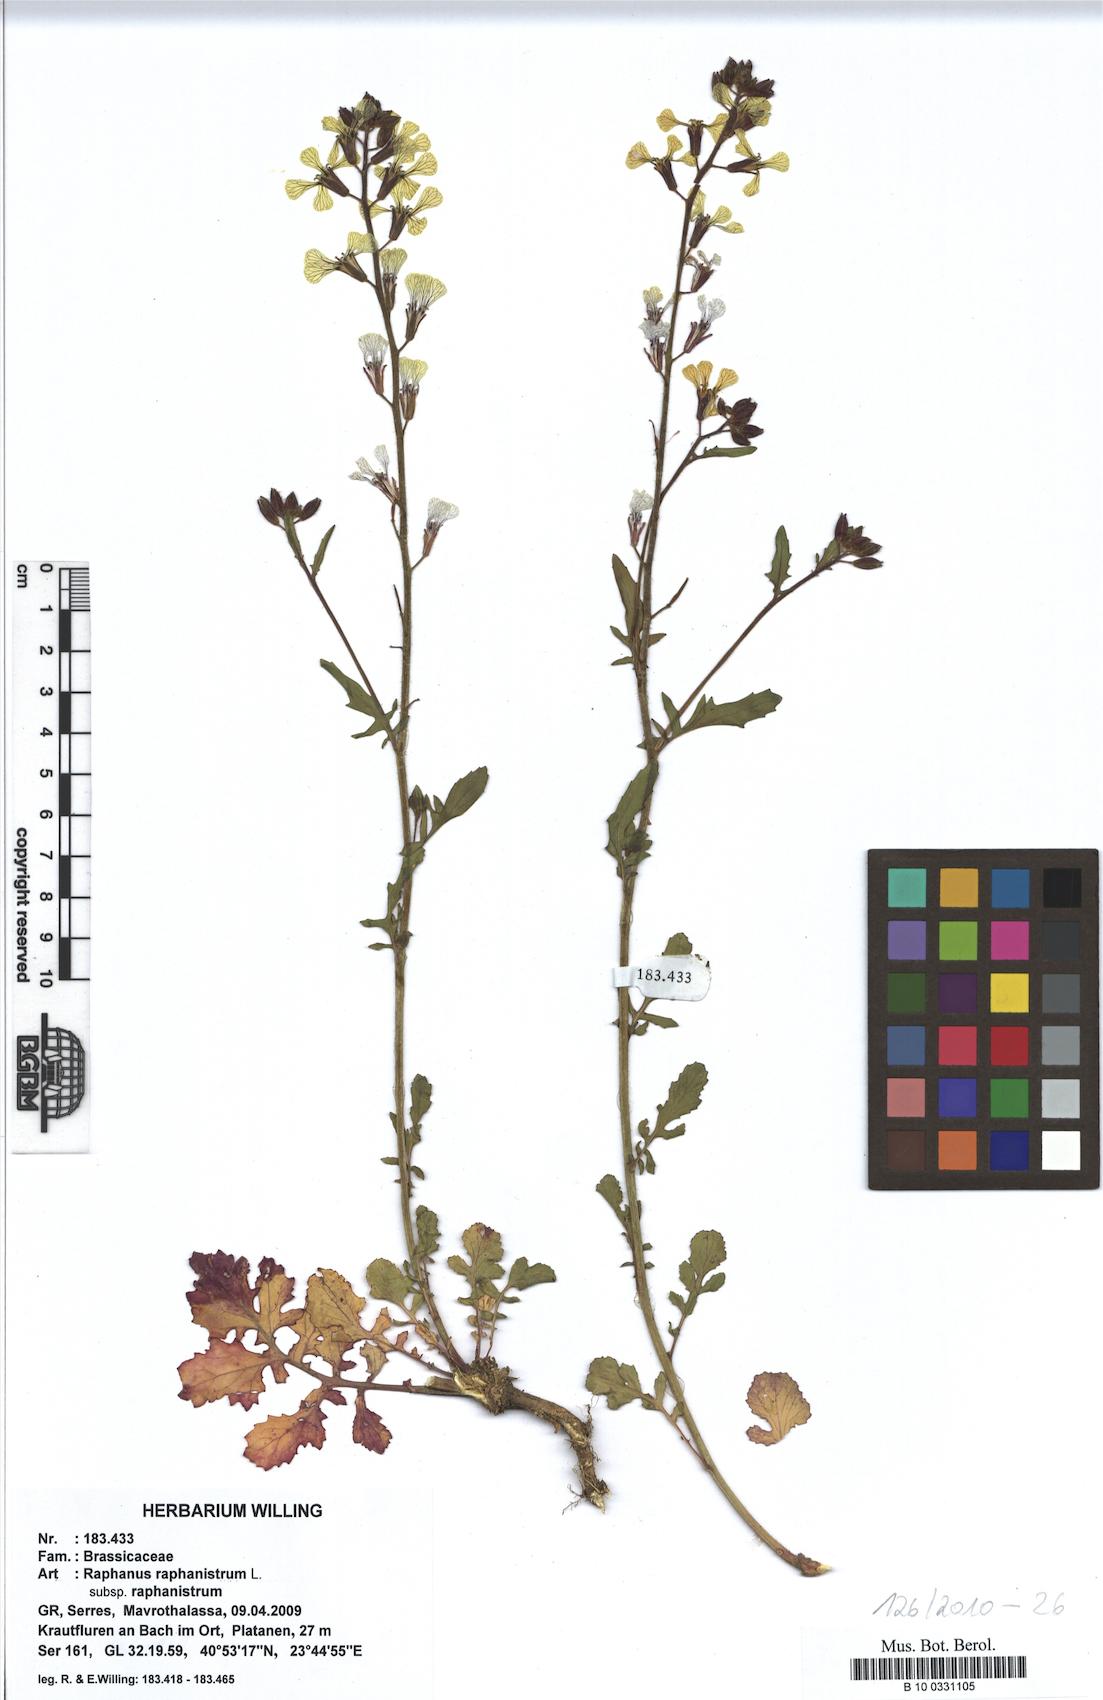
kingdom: Plantae
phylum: Tracheophyta
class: Magnoliopsida
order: Brassicales
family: Brassicaceae
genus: Raphanus
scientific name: Raphanus raphanistrum
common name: Wild radish
